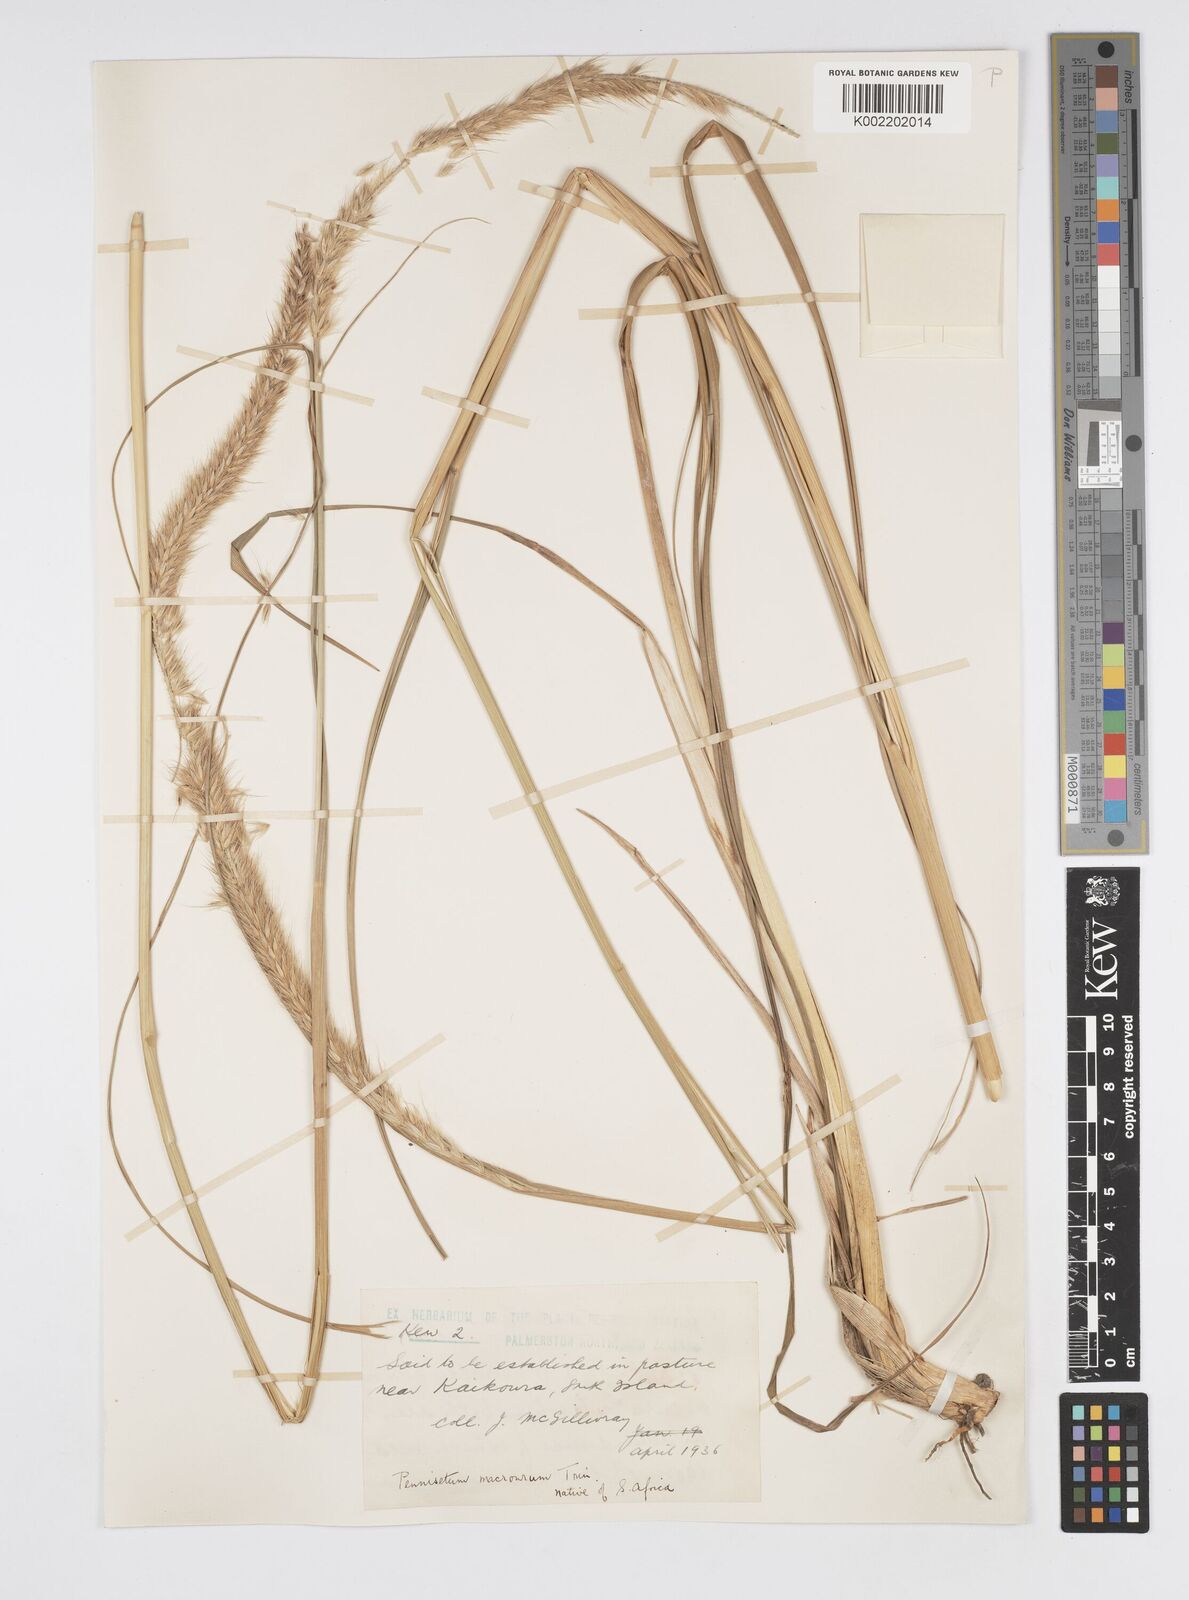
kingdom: Plantae
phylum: Tracheophyta
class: Liliopsida
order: Poales
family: Poaceae
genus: Cenchrus
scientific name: Cenchrus caudatus
